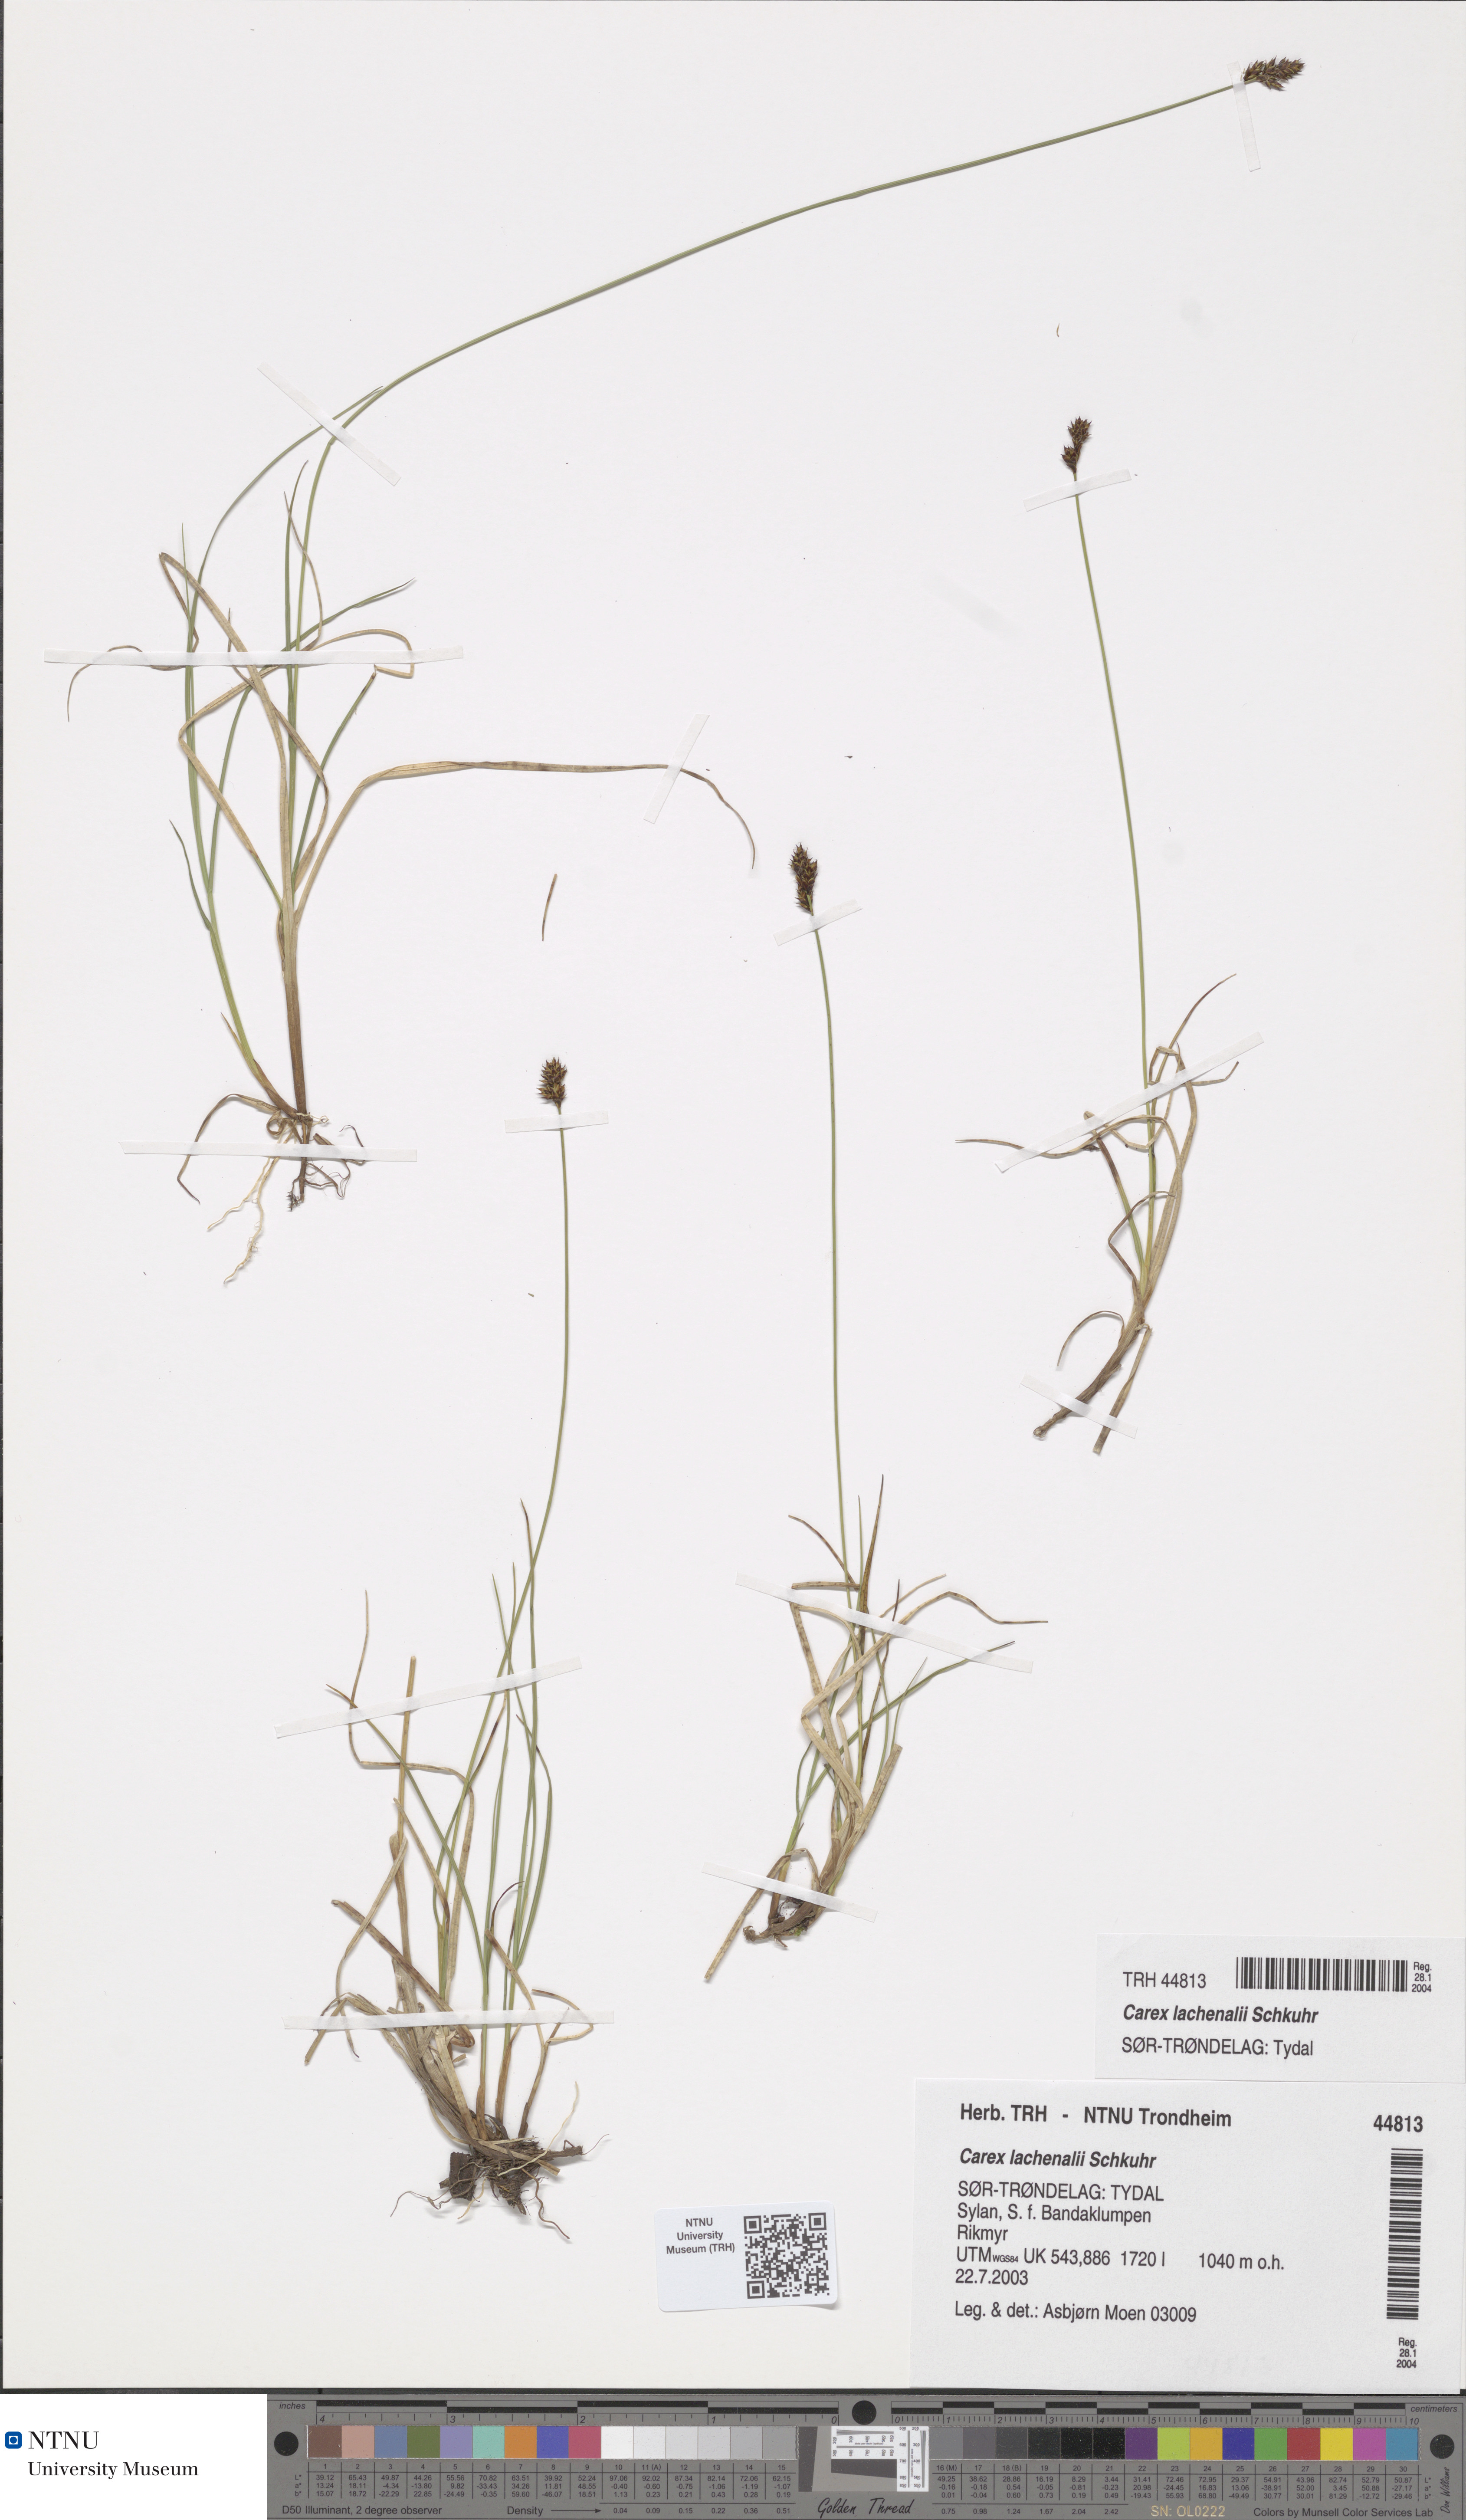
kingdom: Plantae
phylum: Tracheophyta
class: Liliopsida
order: Poales
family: Cyperaceae
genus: Carex
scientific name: Carex lachenalii
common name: Hare's-foot sedge
